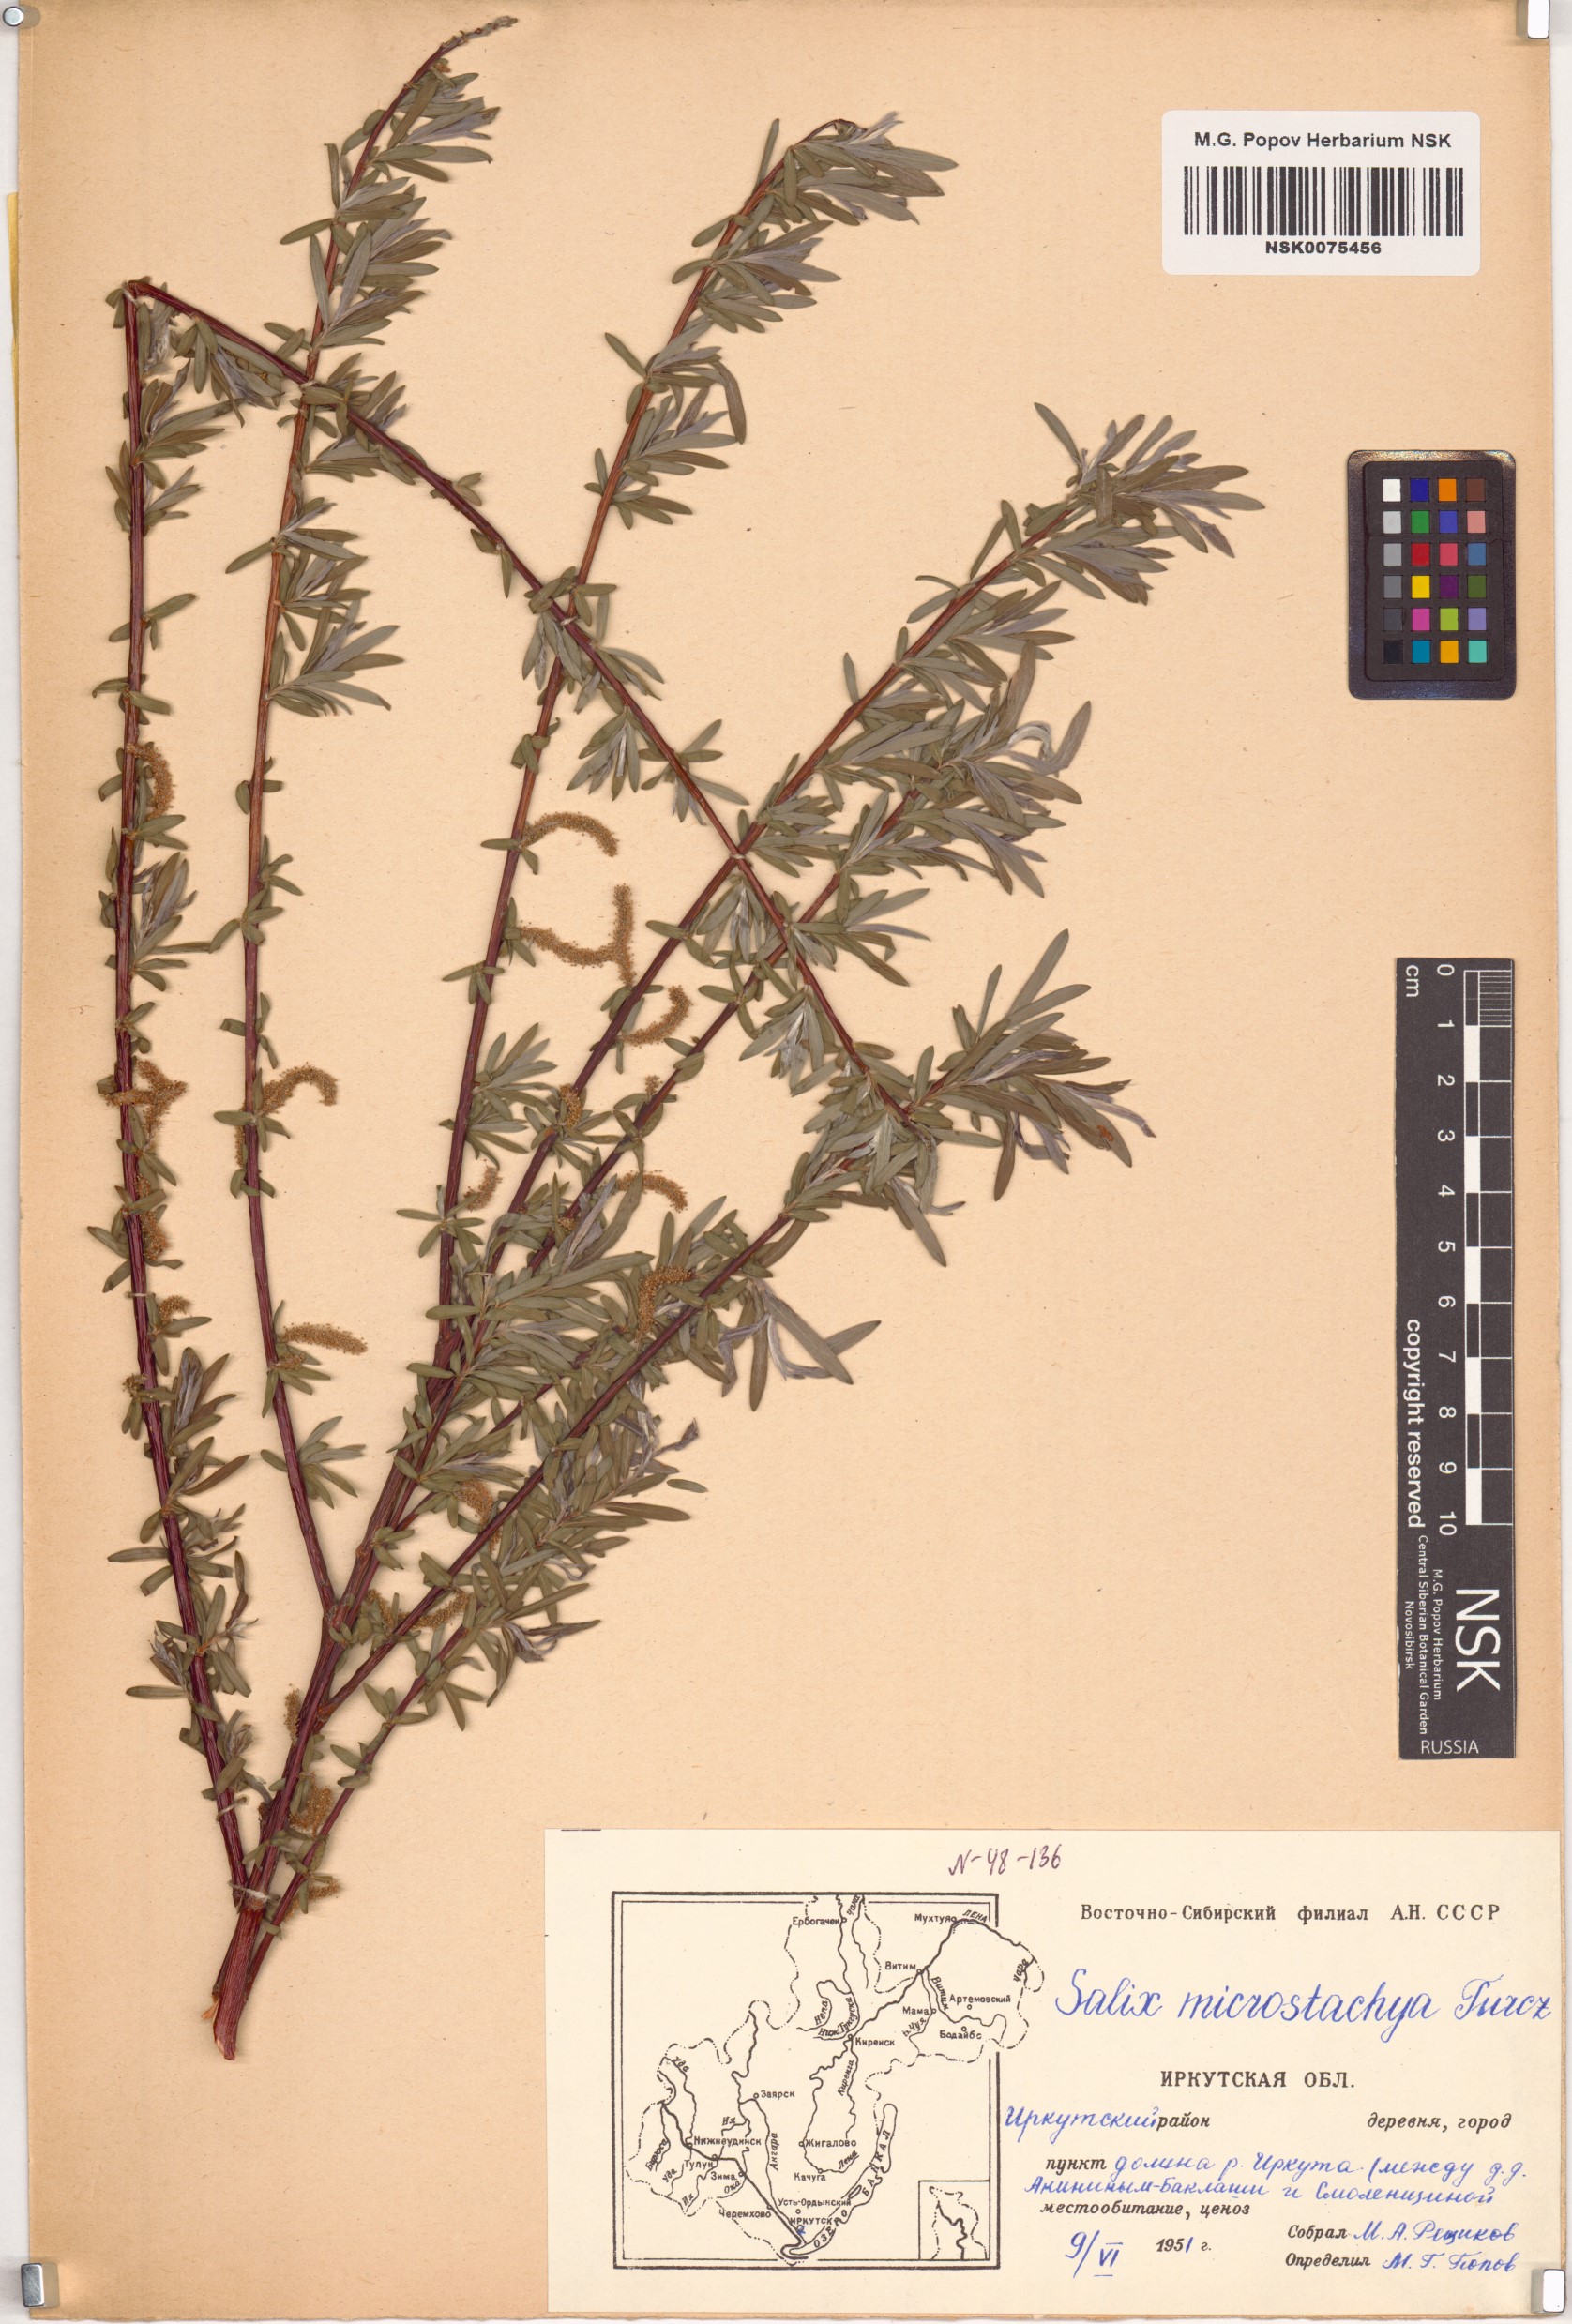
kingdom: Plantae
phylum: Tracheophyta
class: Magnoliopsida
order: Malpighiales
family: Salicaceae
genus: Salix
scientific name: Salix microstachya
